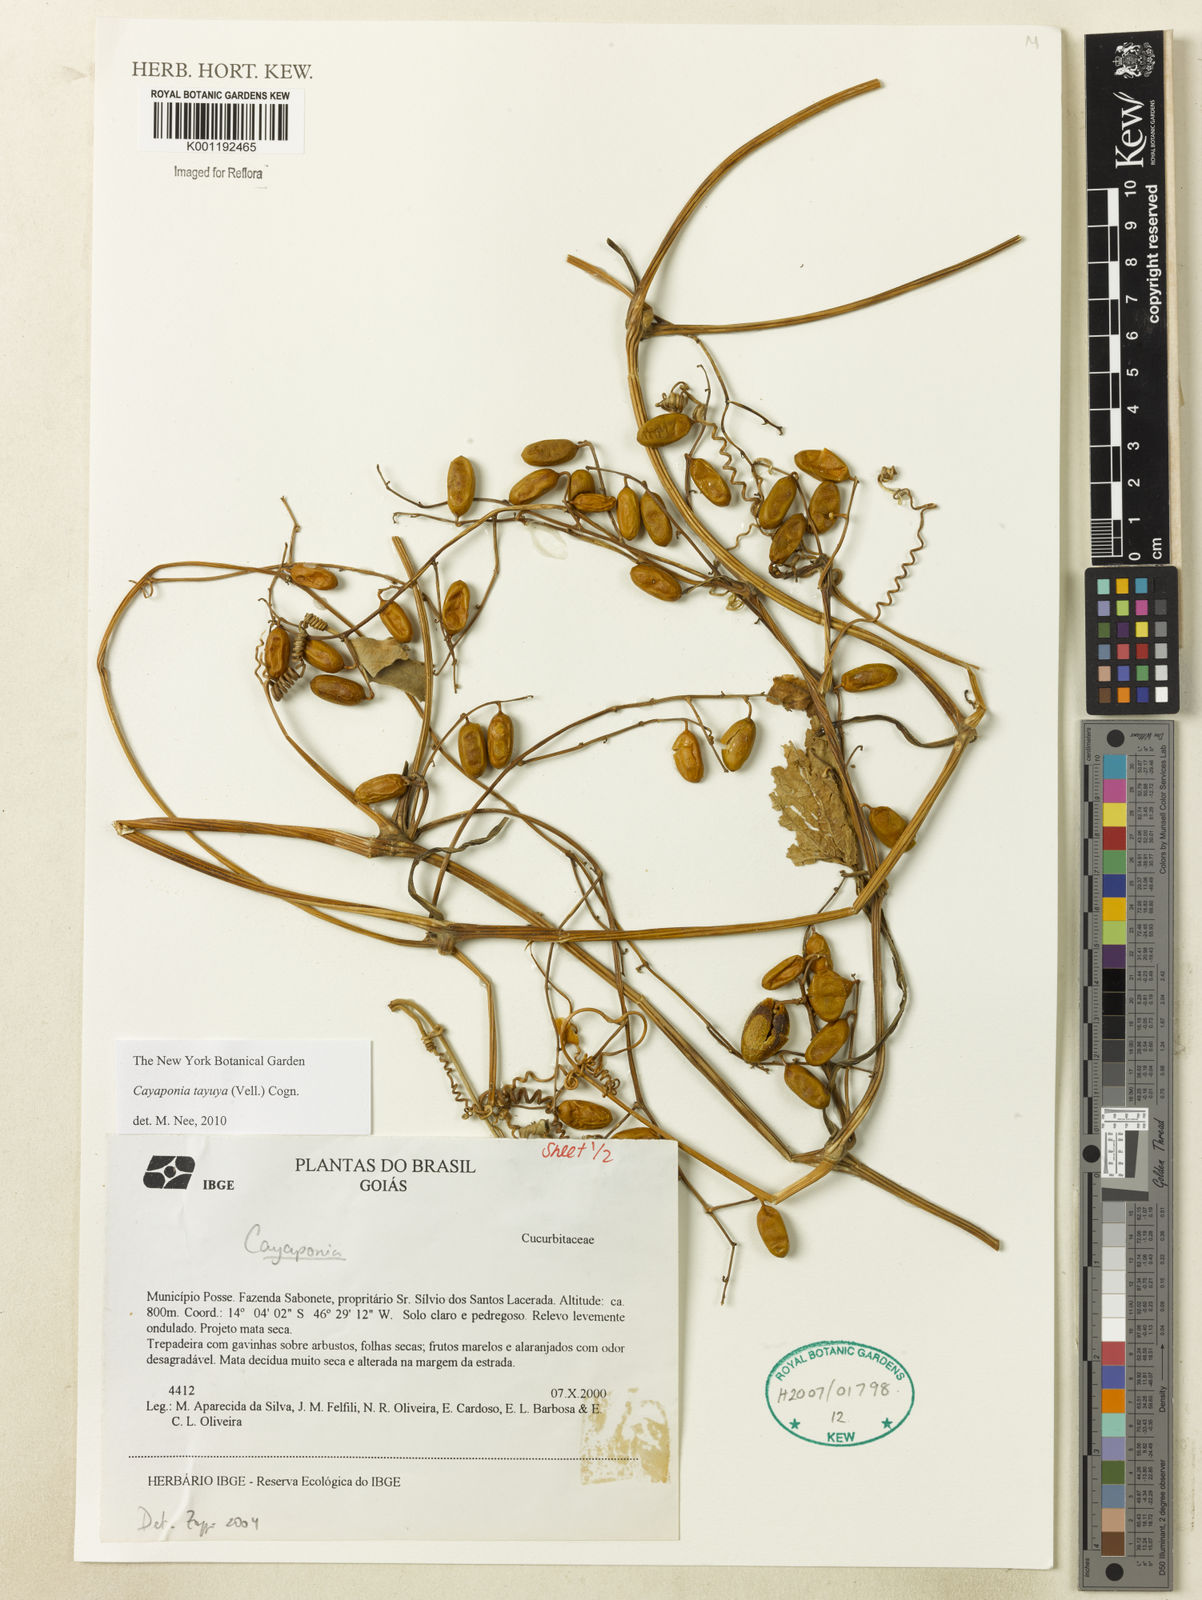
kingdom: Plantae
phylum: Tracheophyta
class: Magnoliopsida
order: Cucurbitales
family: Cucurbitaceae
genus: Cayaponia
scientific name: Cayaponia tayuya
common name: Tayuya
